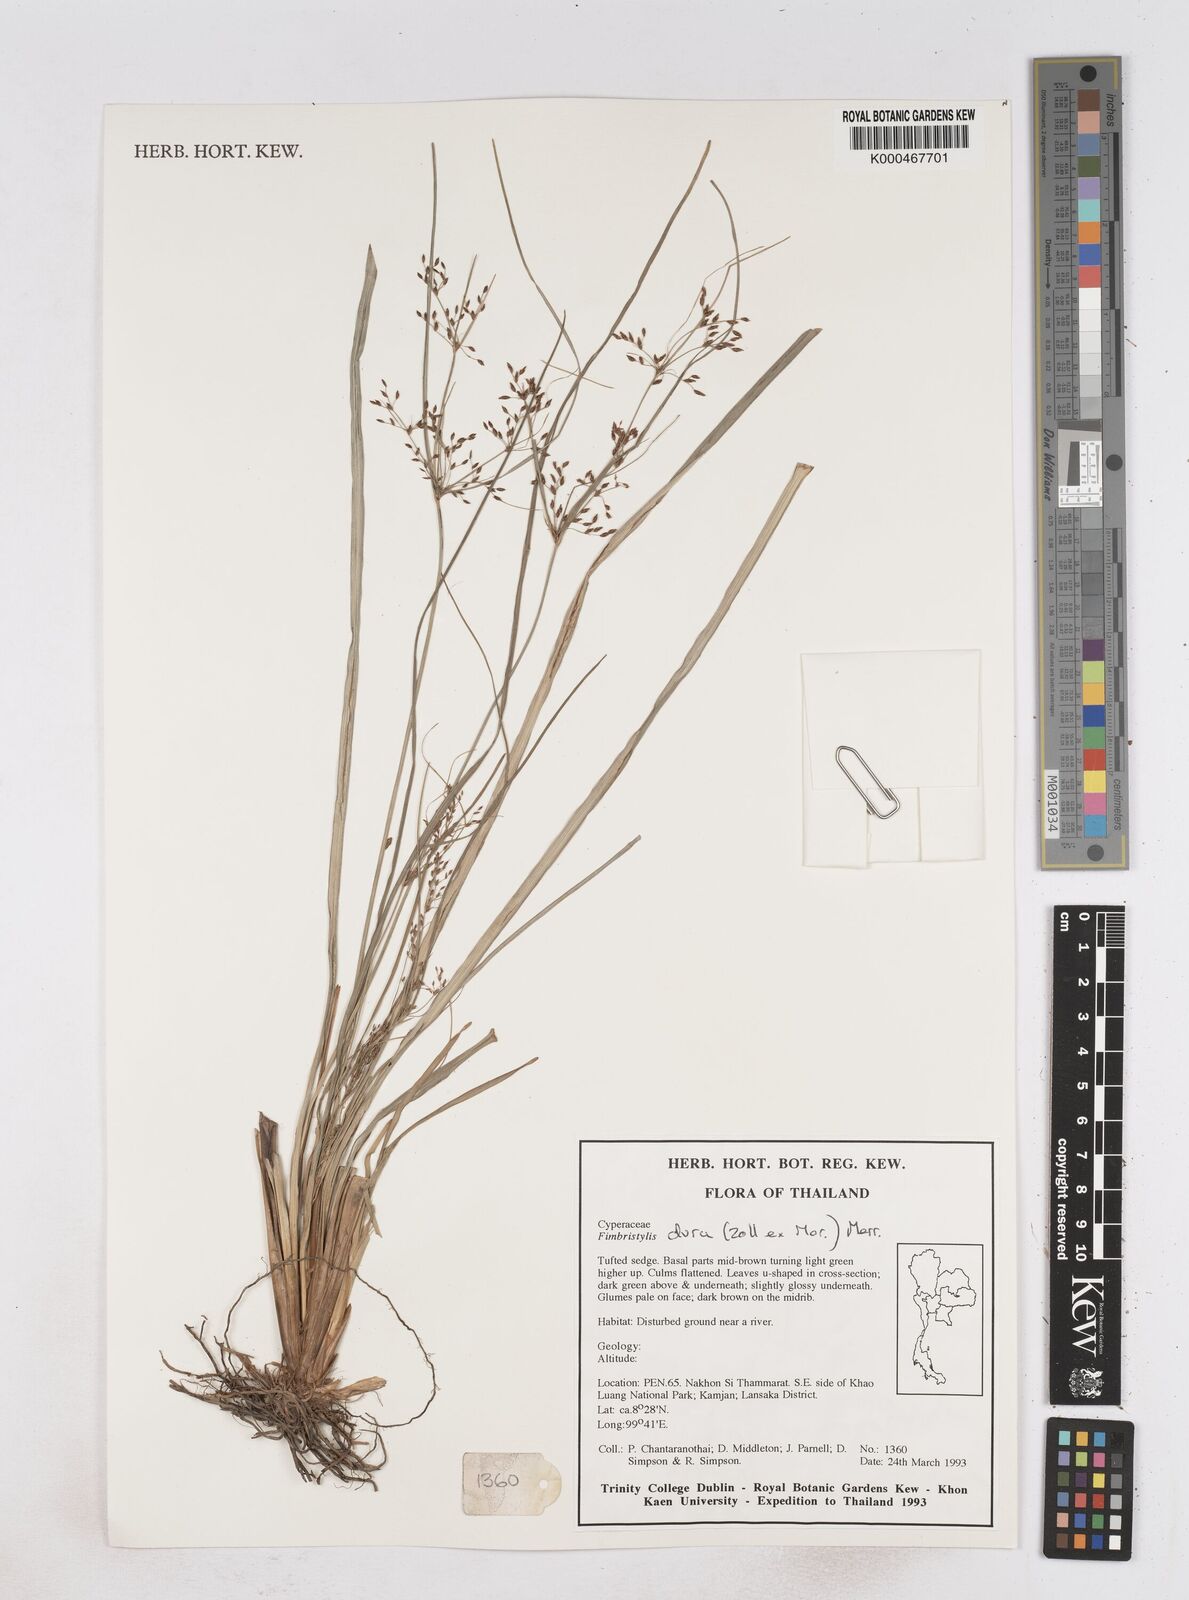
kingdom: Plantae
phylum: Tracheophyta
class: Liliopsida
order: Poales
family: Cyperaceae
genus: Fimbristylis
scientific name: Fimbristylis dura
